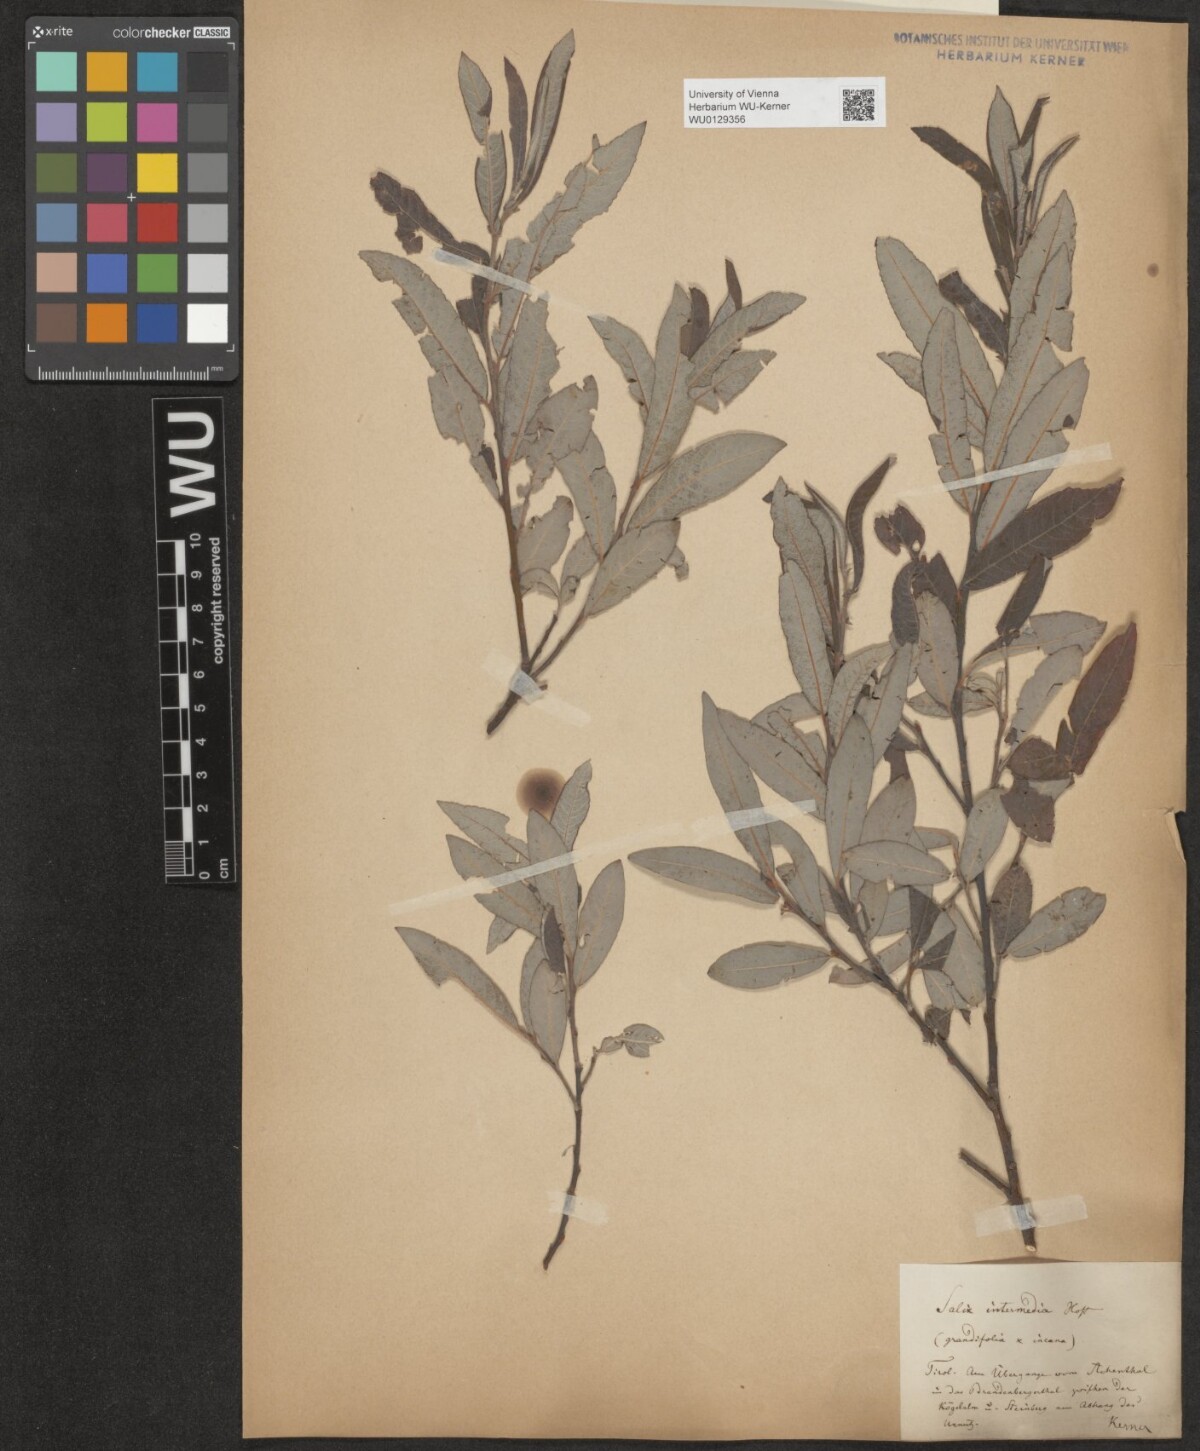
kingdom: Plantae
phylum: Tracheophyta
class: Magnoliopsida
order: Malpighiales
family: Salicaceae
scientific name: Salicaceae
